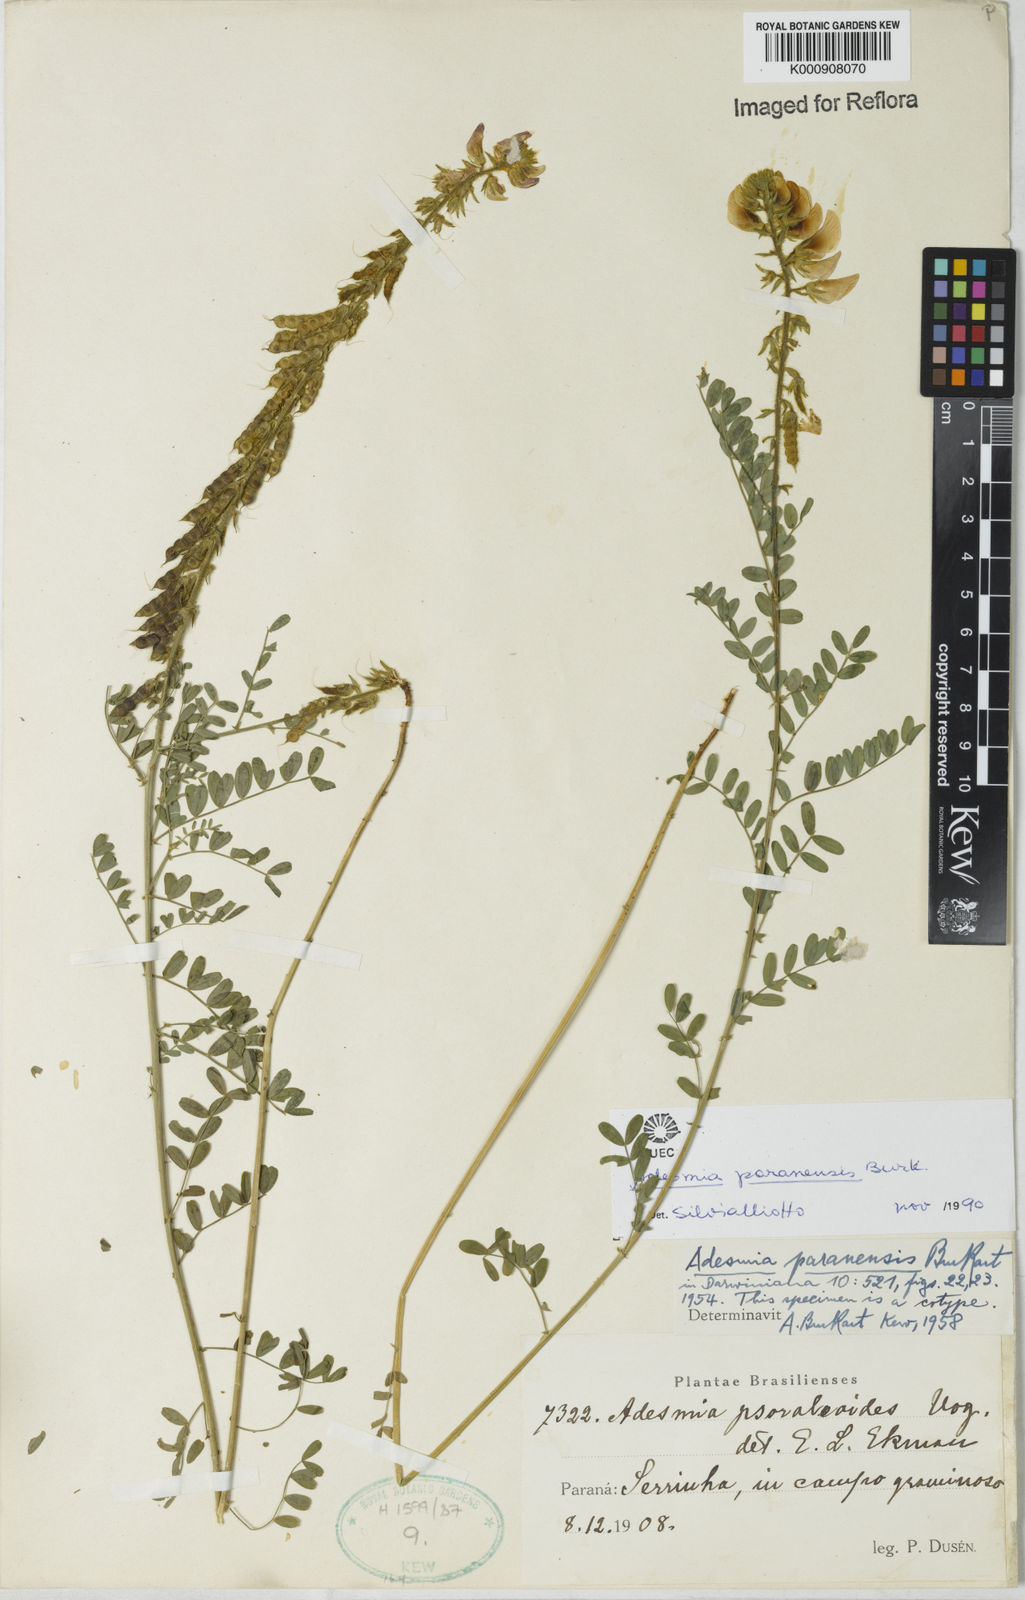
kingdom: Plantae
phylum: Tracheophyta
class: Magnoliopsida
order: Fabales
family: Fabaceae
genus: Adesmia
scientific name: Adesmia paranensis
